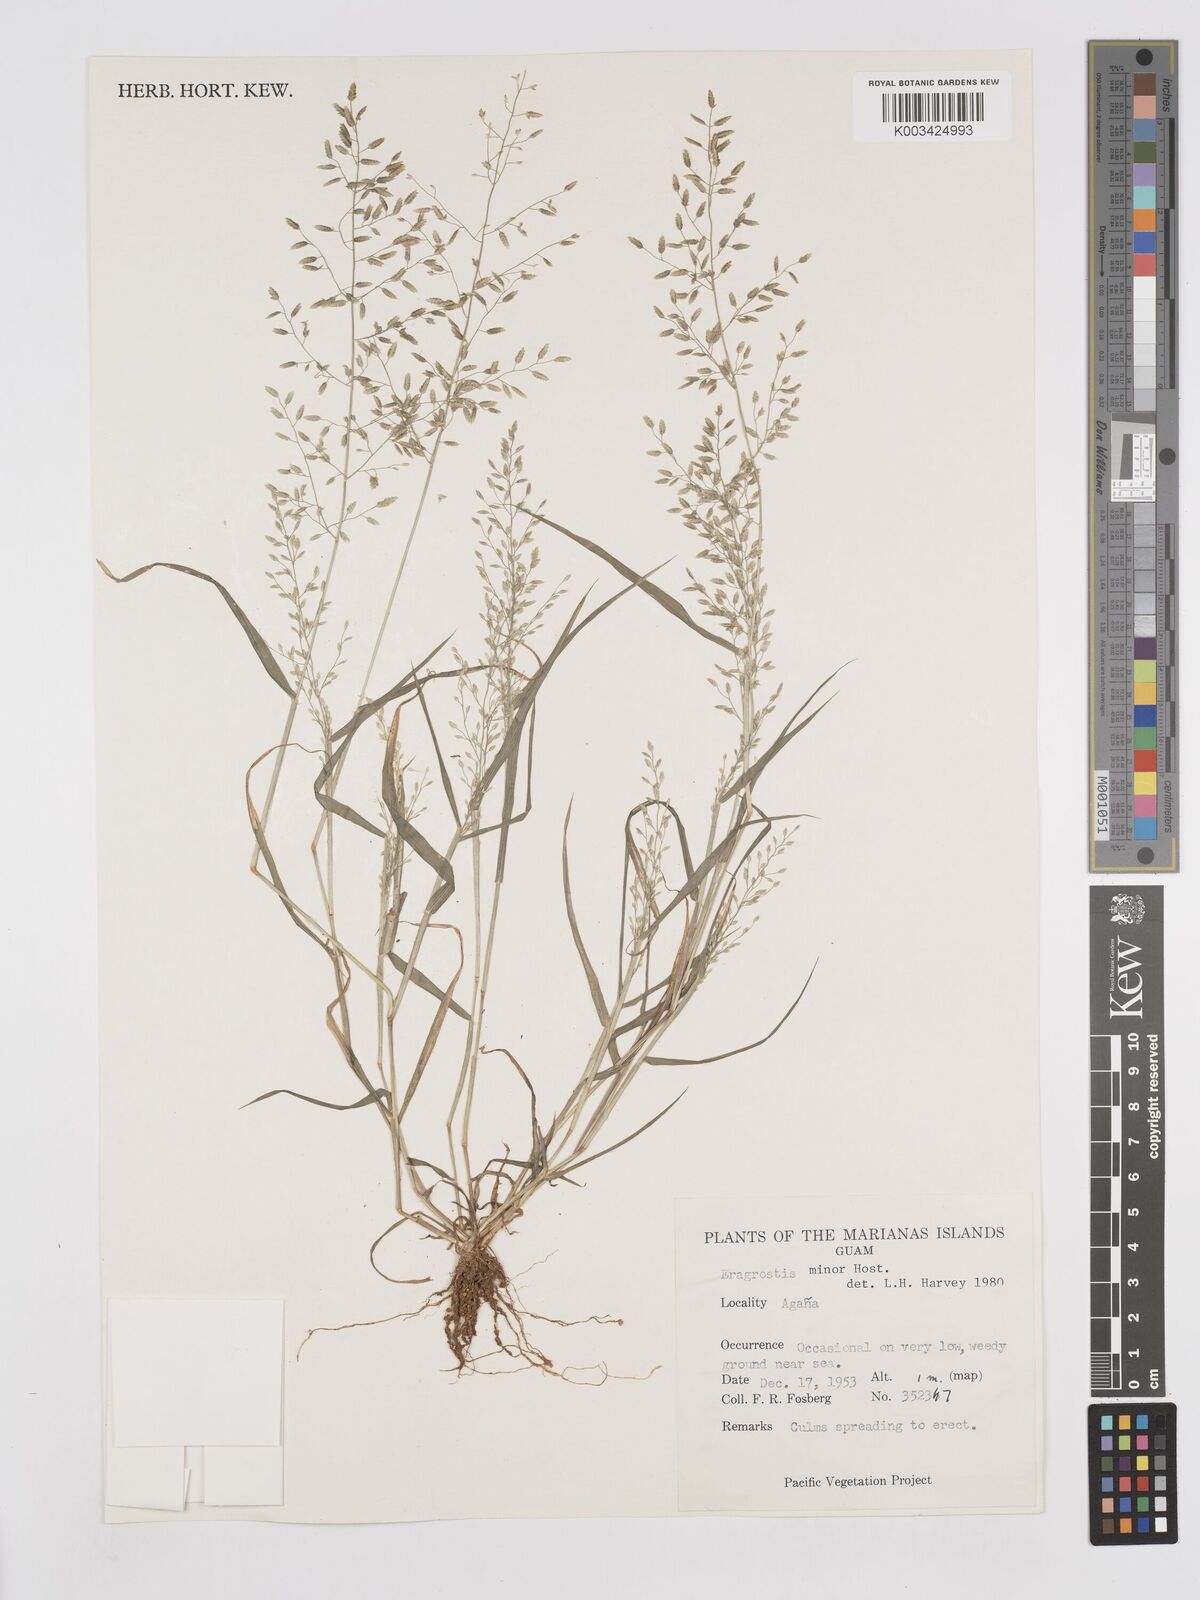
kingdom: Plantae
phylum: Tracheophyta
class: Liliopsida
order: Poales
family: Poaceae
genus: Eragrostis
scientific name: Eragrostis minor
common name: Small love-grass
